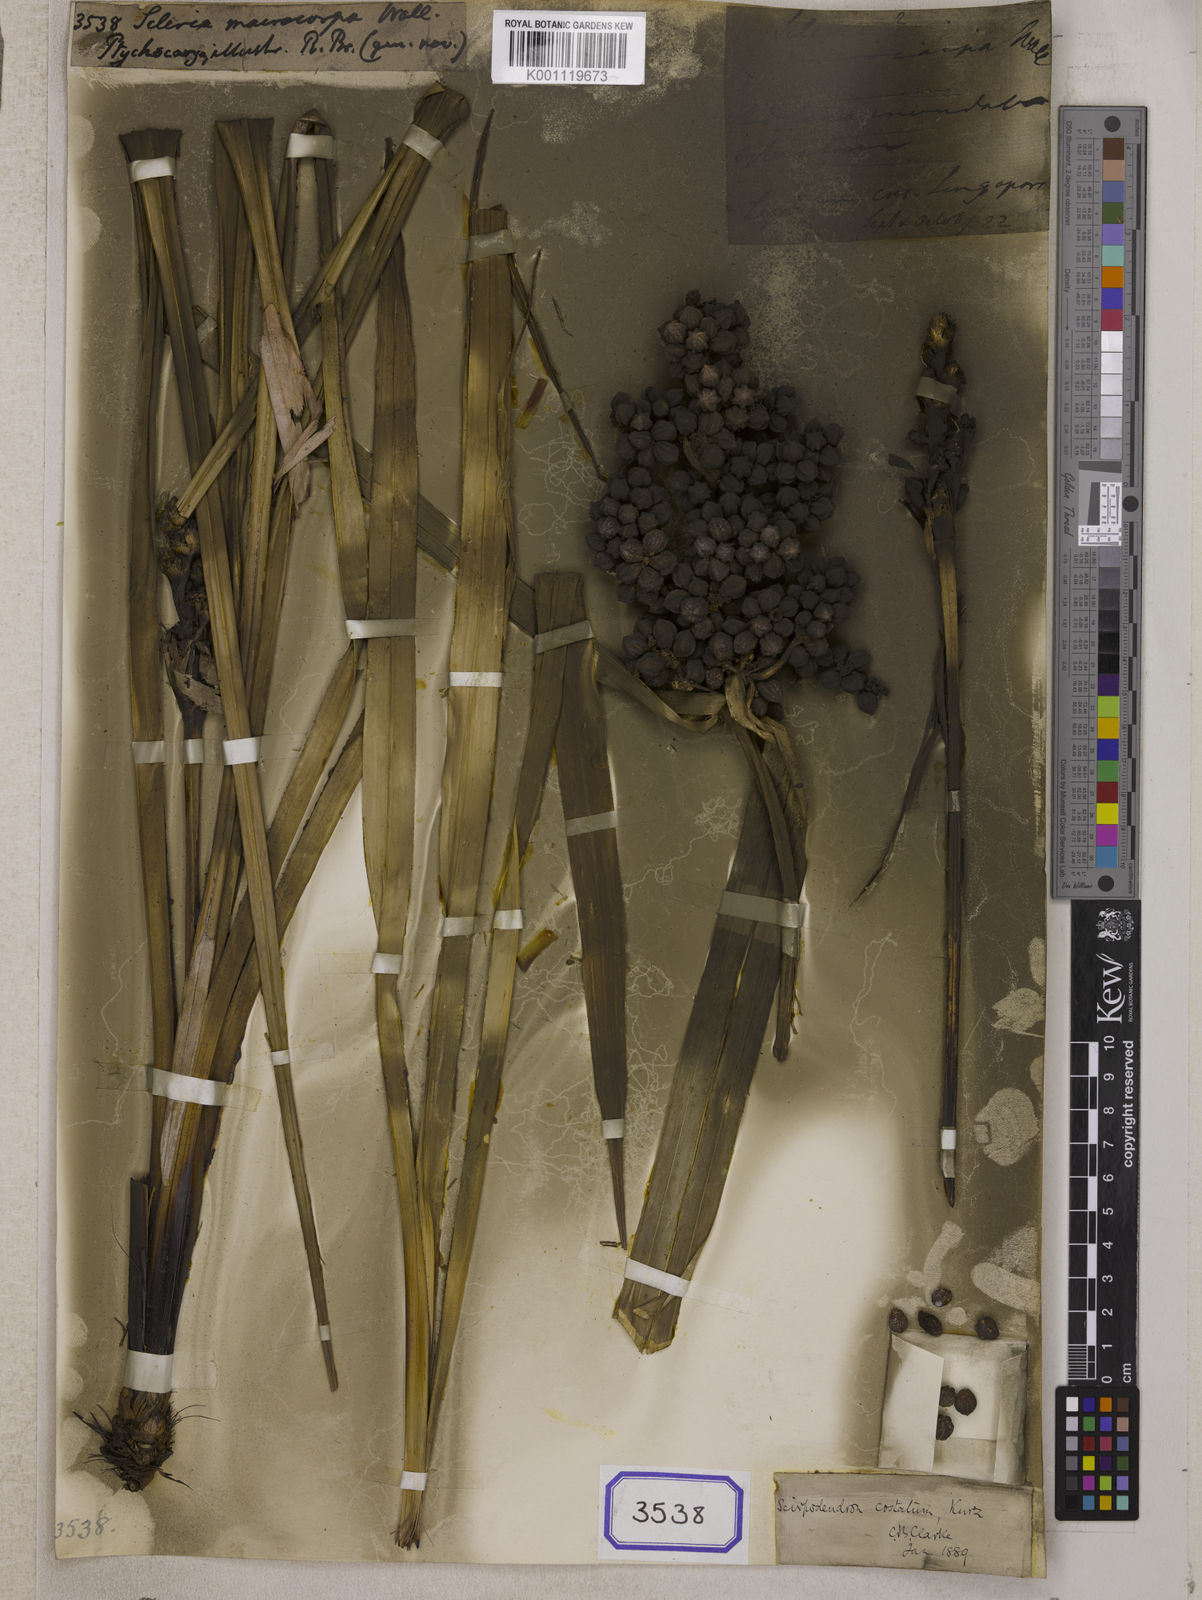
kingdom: Plantae
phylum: Tracheophyta
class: Liliopsida
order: Poales
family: Cyperaceae
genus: Scirpodendron
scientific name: Scirpodendron ghaeri
